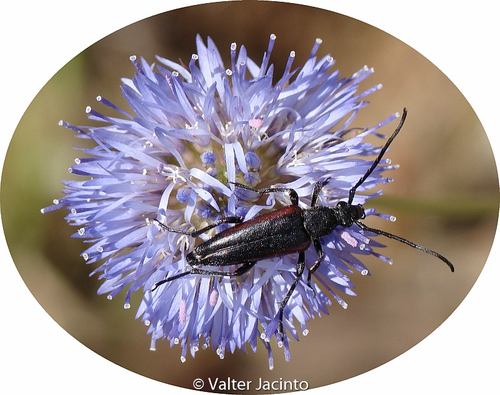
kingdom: Animalia
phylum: Arthropoda
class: Insecta
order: Coleoptera
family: Cerambycidae
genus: Stenurella
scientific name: Stenurella approximans
